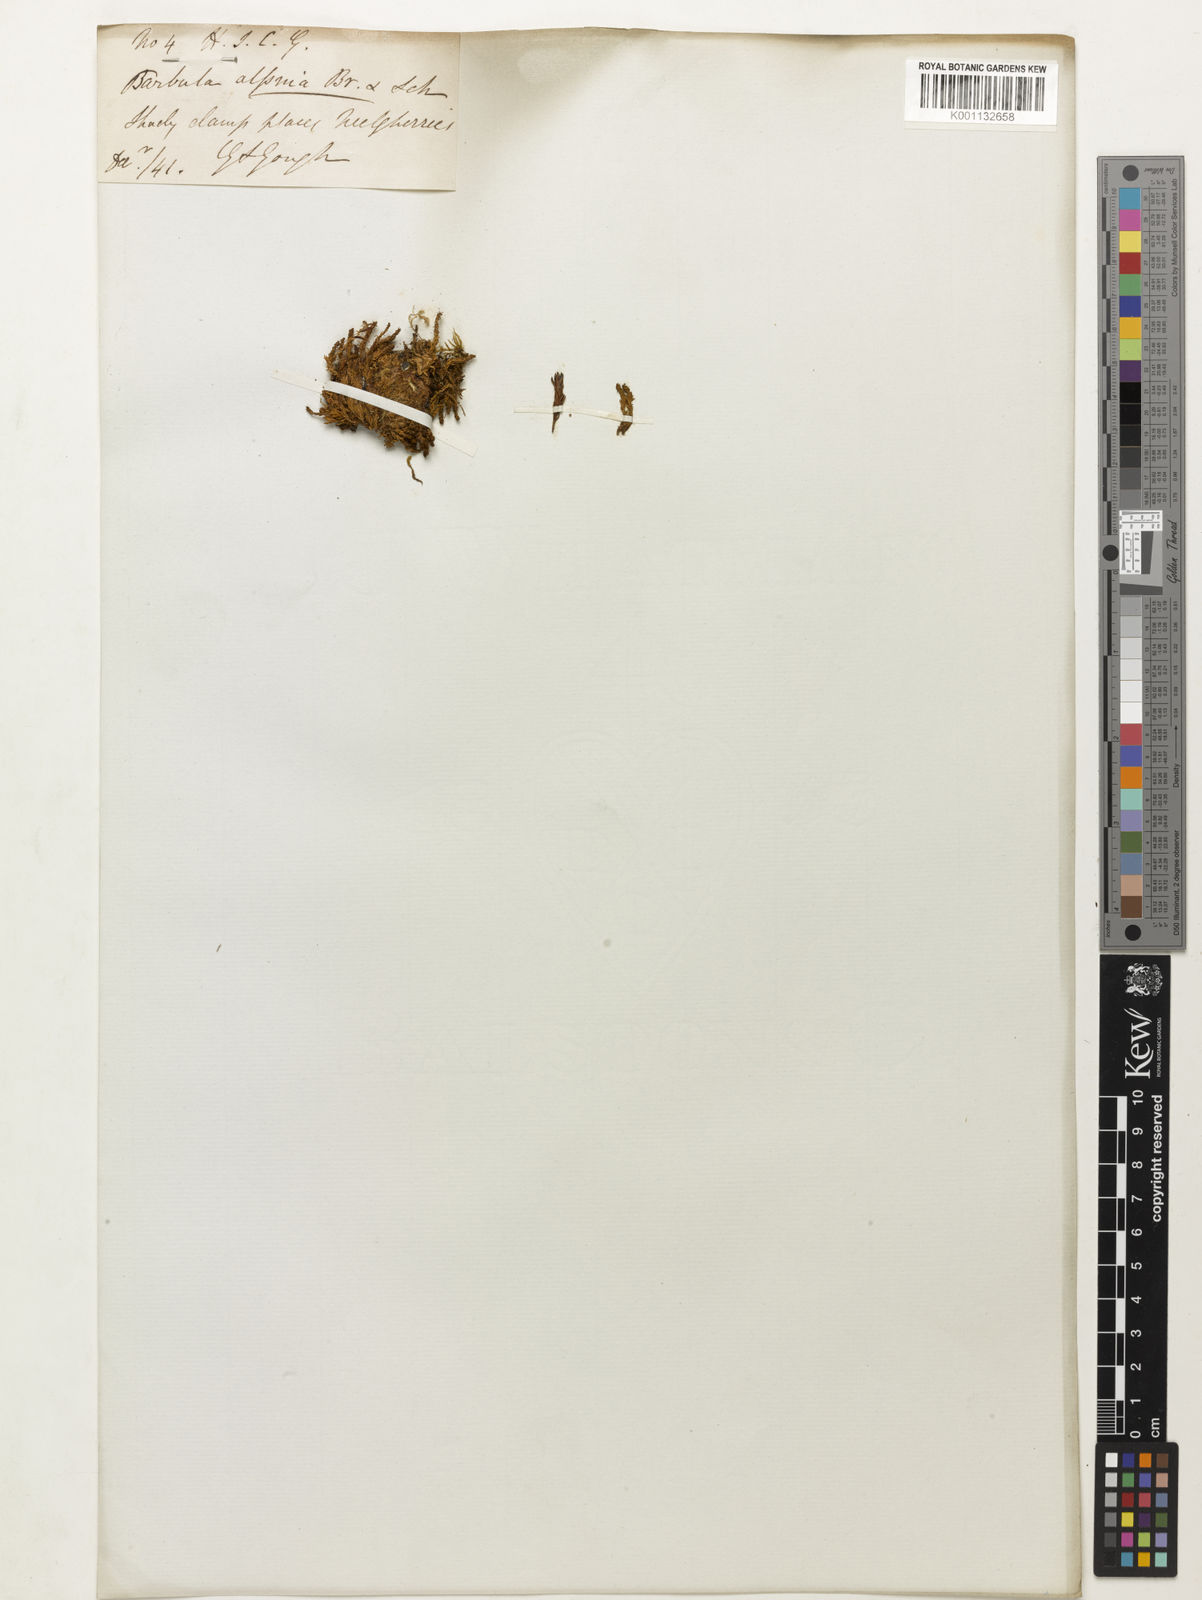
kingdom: Plantae
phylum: Bryophyta
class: Bryopsida
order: Pottiales
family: Pottiaceae
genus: Barbula
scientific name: Barbula
